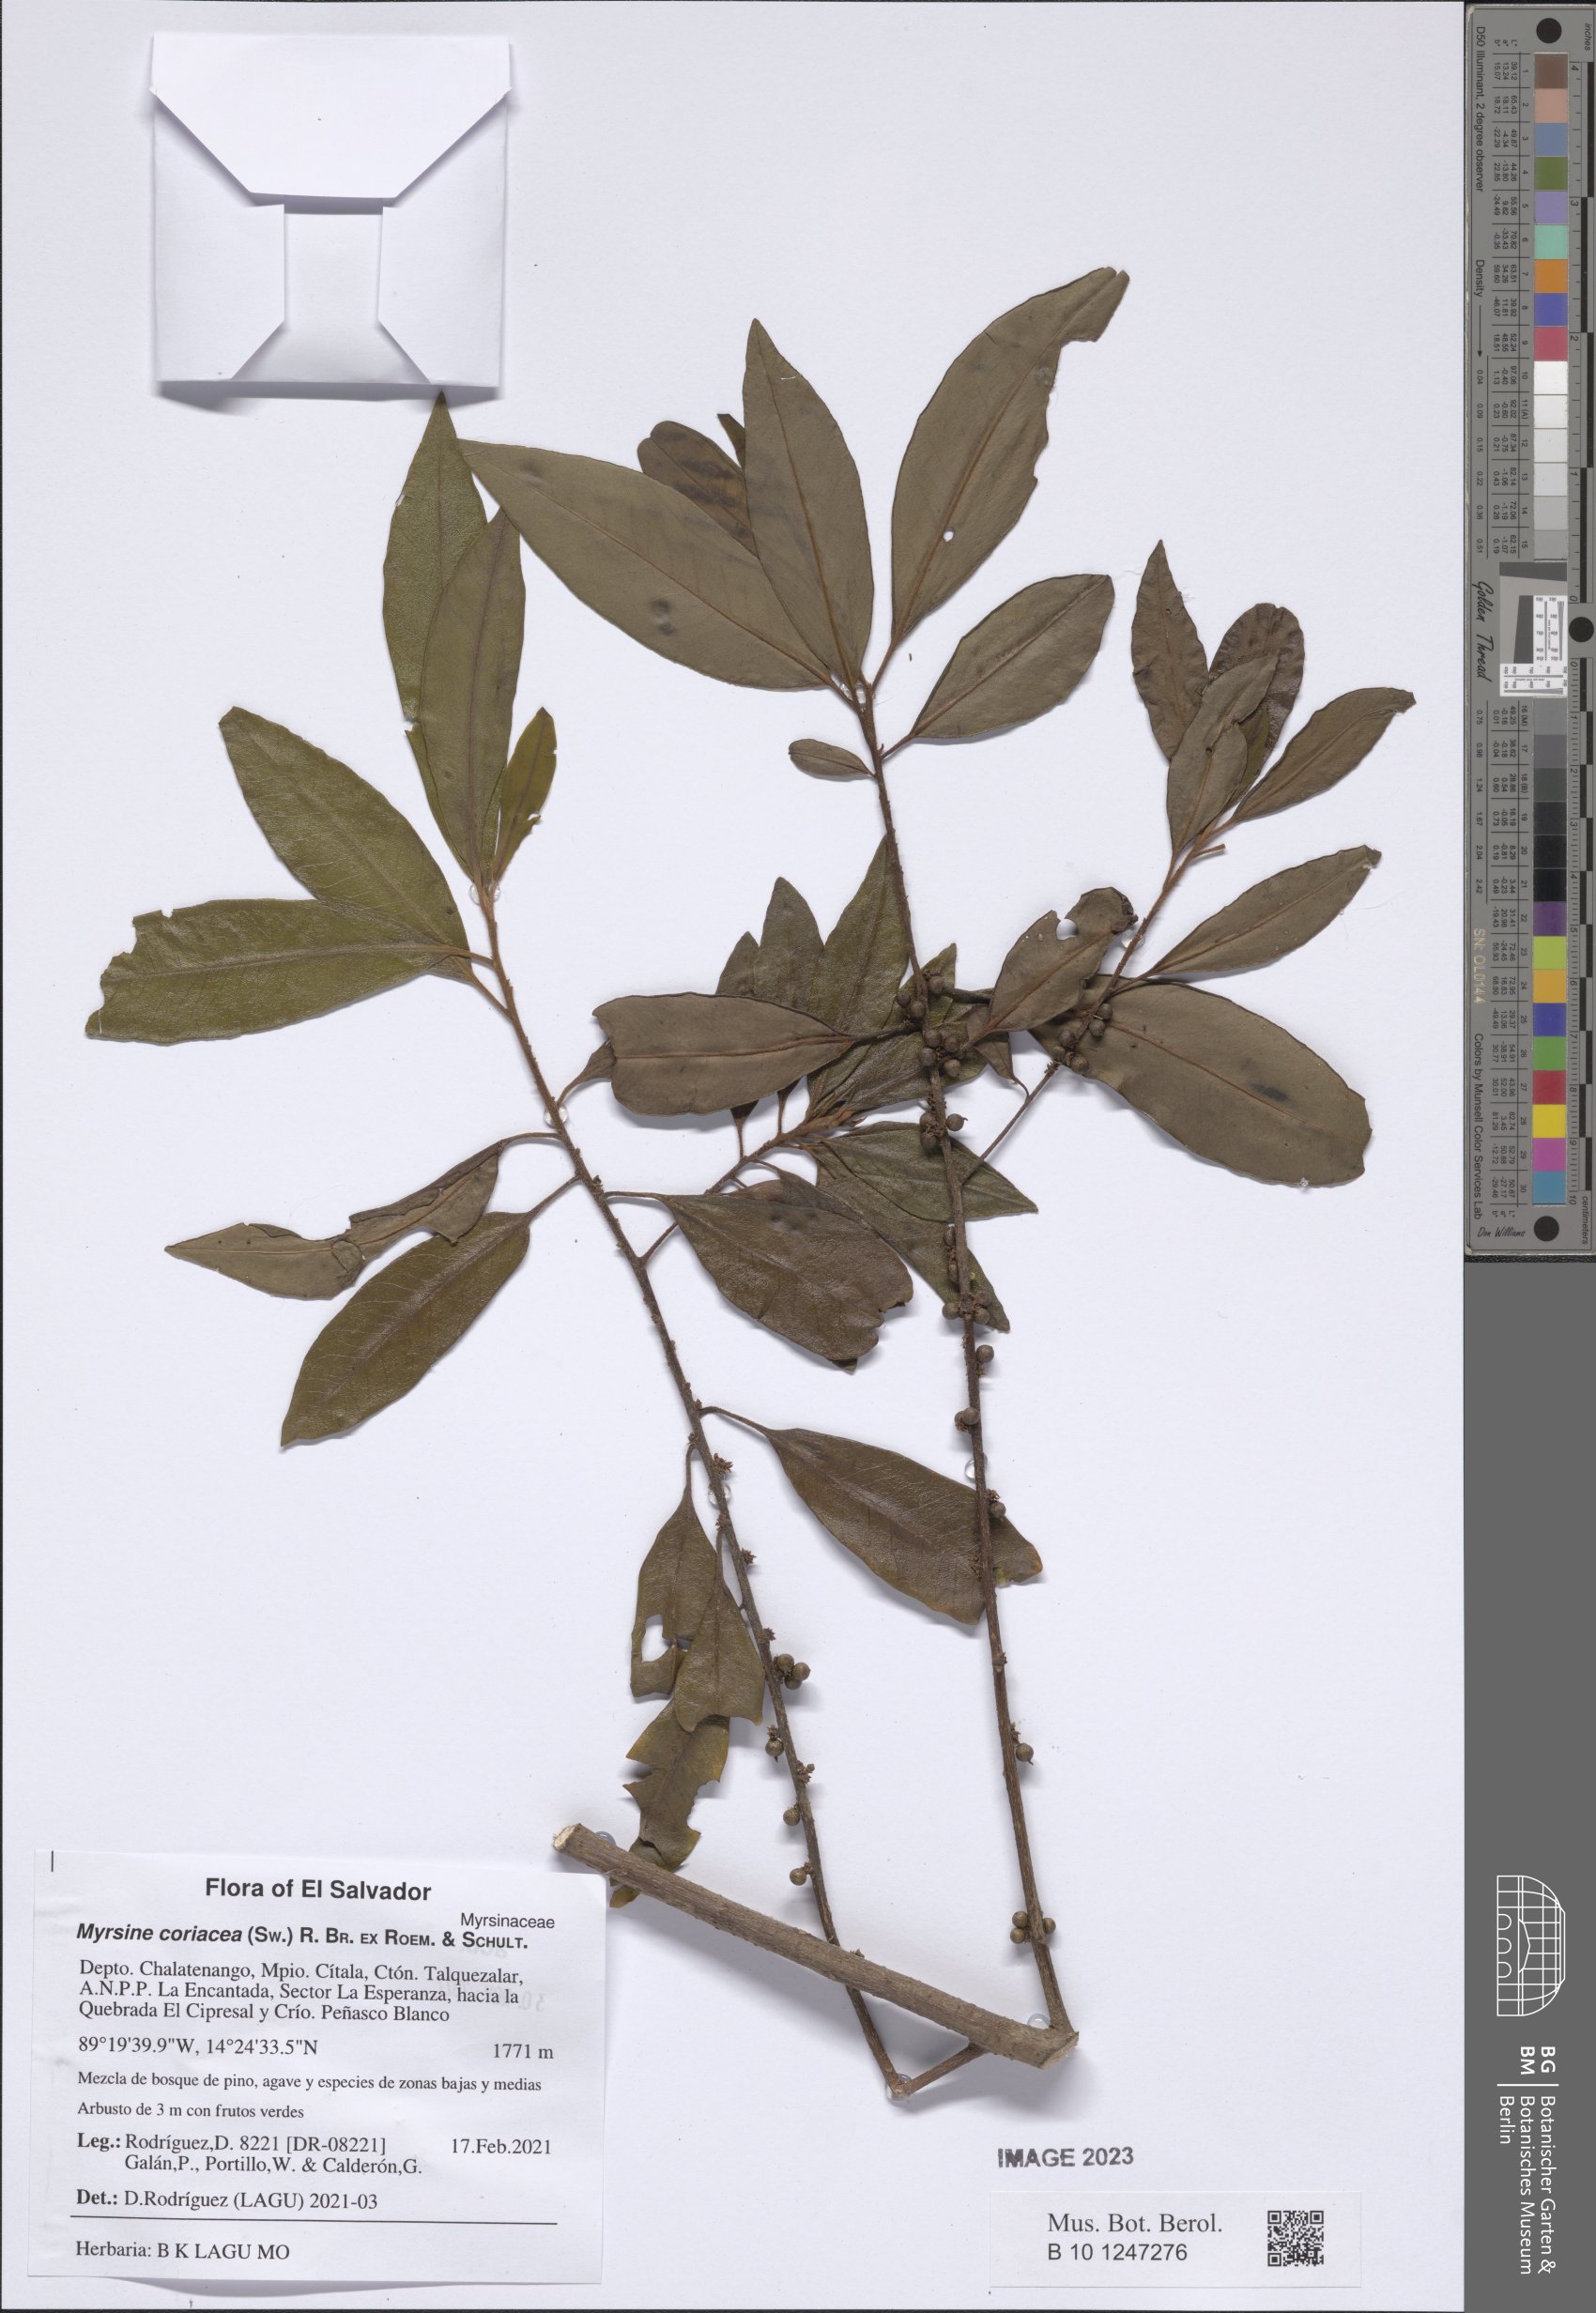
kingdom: Plantae
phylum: Tracheophyta
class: Magnoliopsida
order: Ericales
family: Primulaceae
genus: Myrsine
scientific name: Myrsine coriacea
